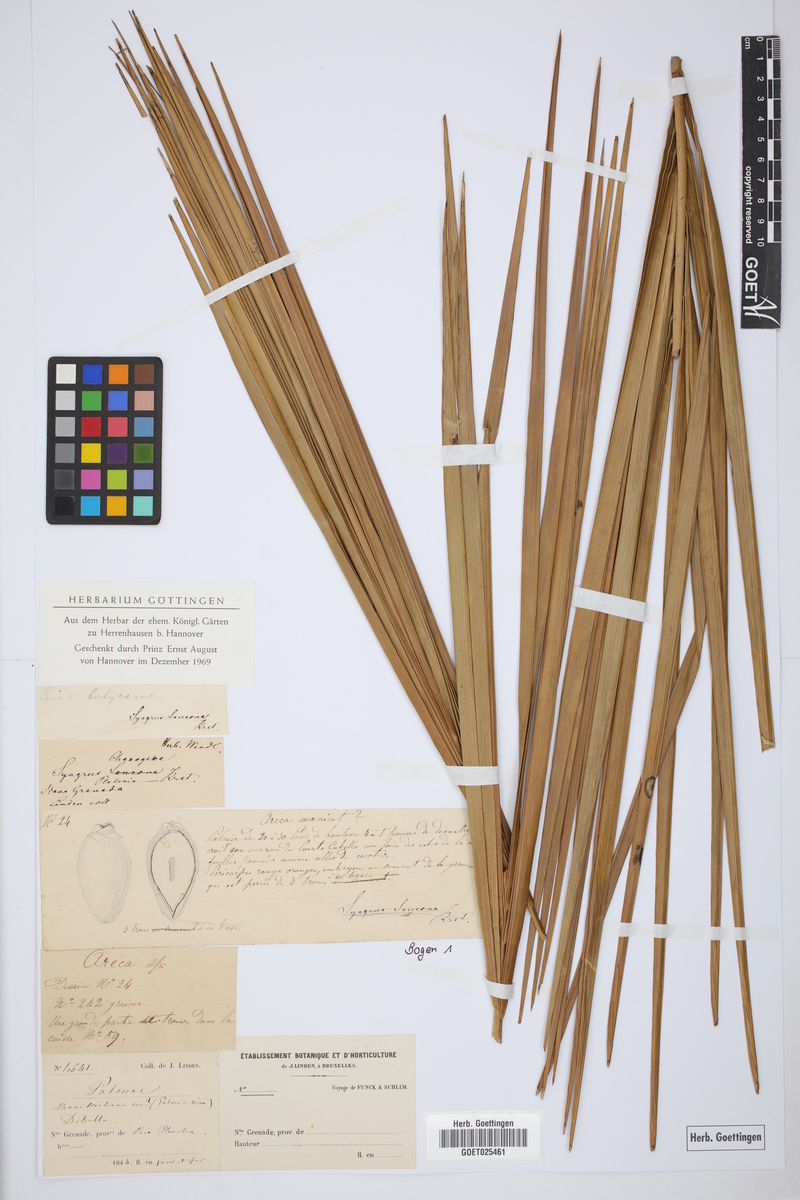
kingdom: Plantae
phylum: Tracheophyta
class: Liliopsida
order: Arecales
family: Arecaceae
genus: Syagrus
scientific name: Syagrus sancona
